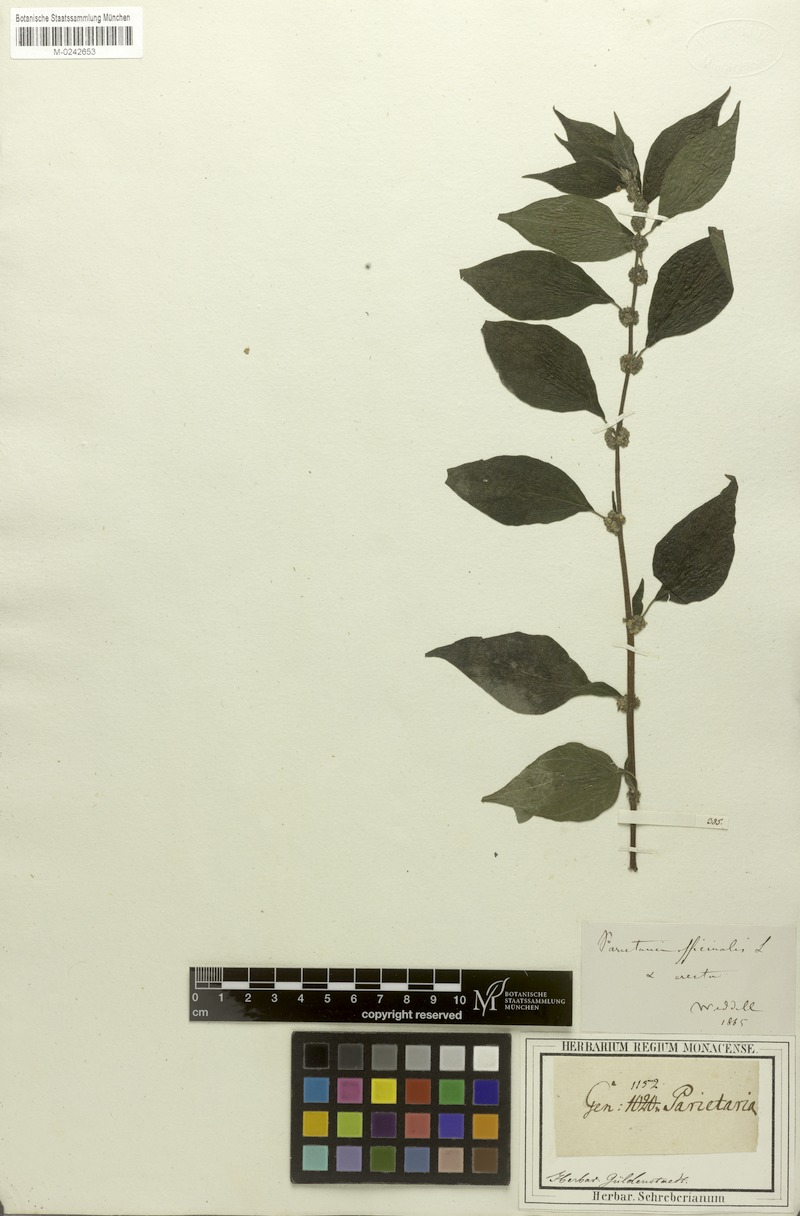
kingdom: Plantae
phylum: Tracheophyta
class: Magnoliopsida
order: Rosales
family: Urticaceae
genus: Parietaria
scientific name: Parietaria
